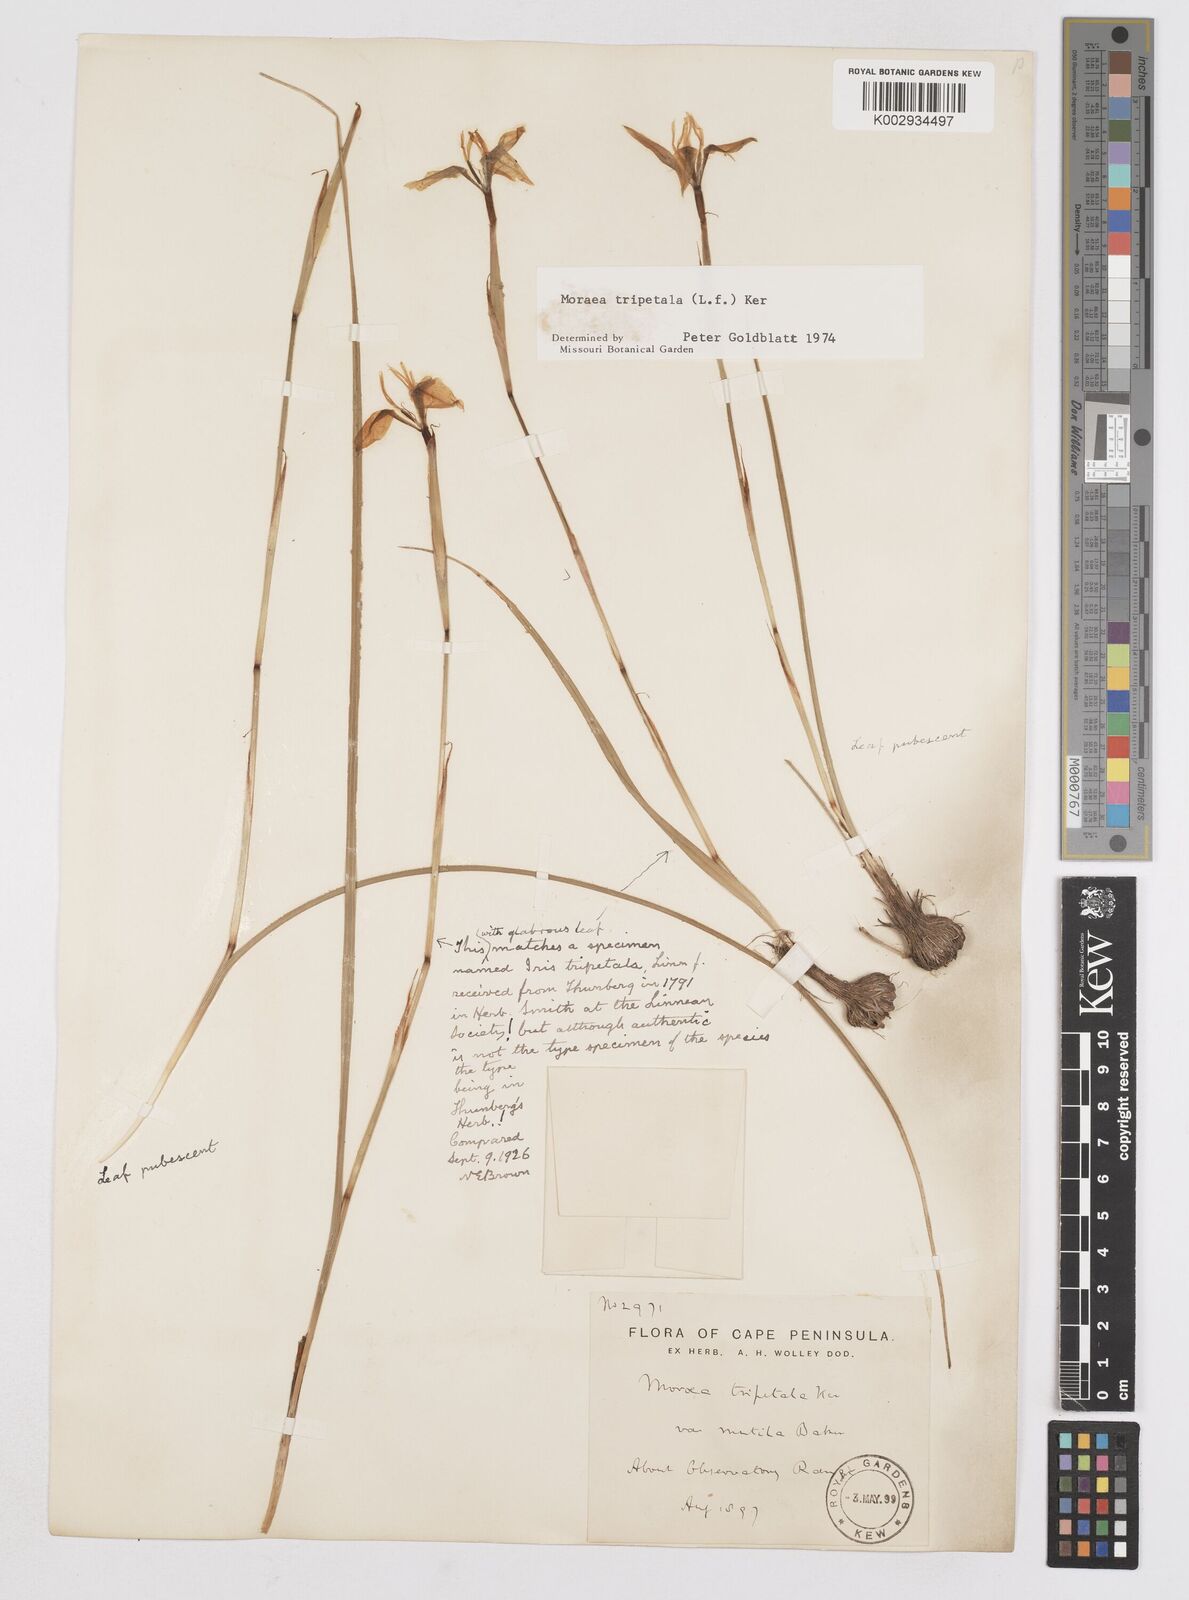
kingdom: Plantae
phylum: Tracheophyta
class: Liliopsida
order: Asparagales
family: Iridaceae
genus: Moraea
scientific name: Moraea tripetala
